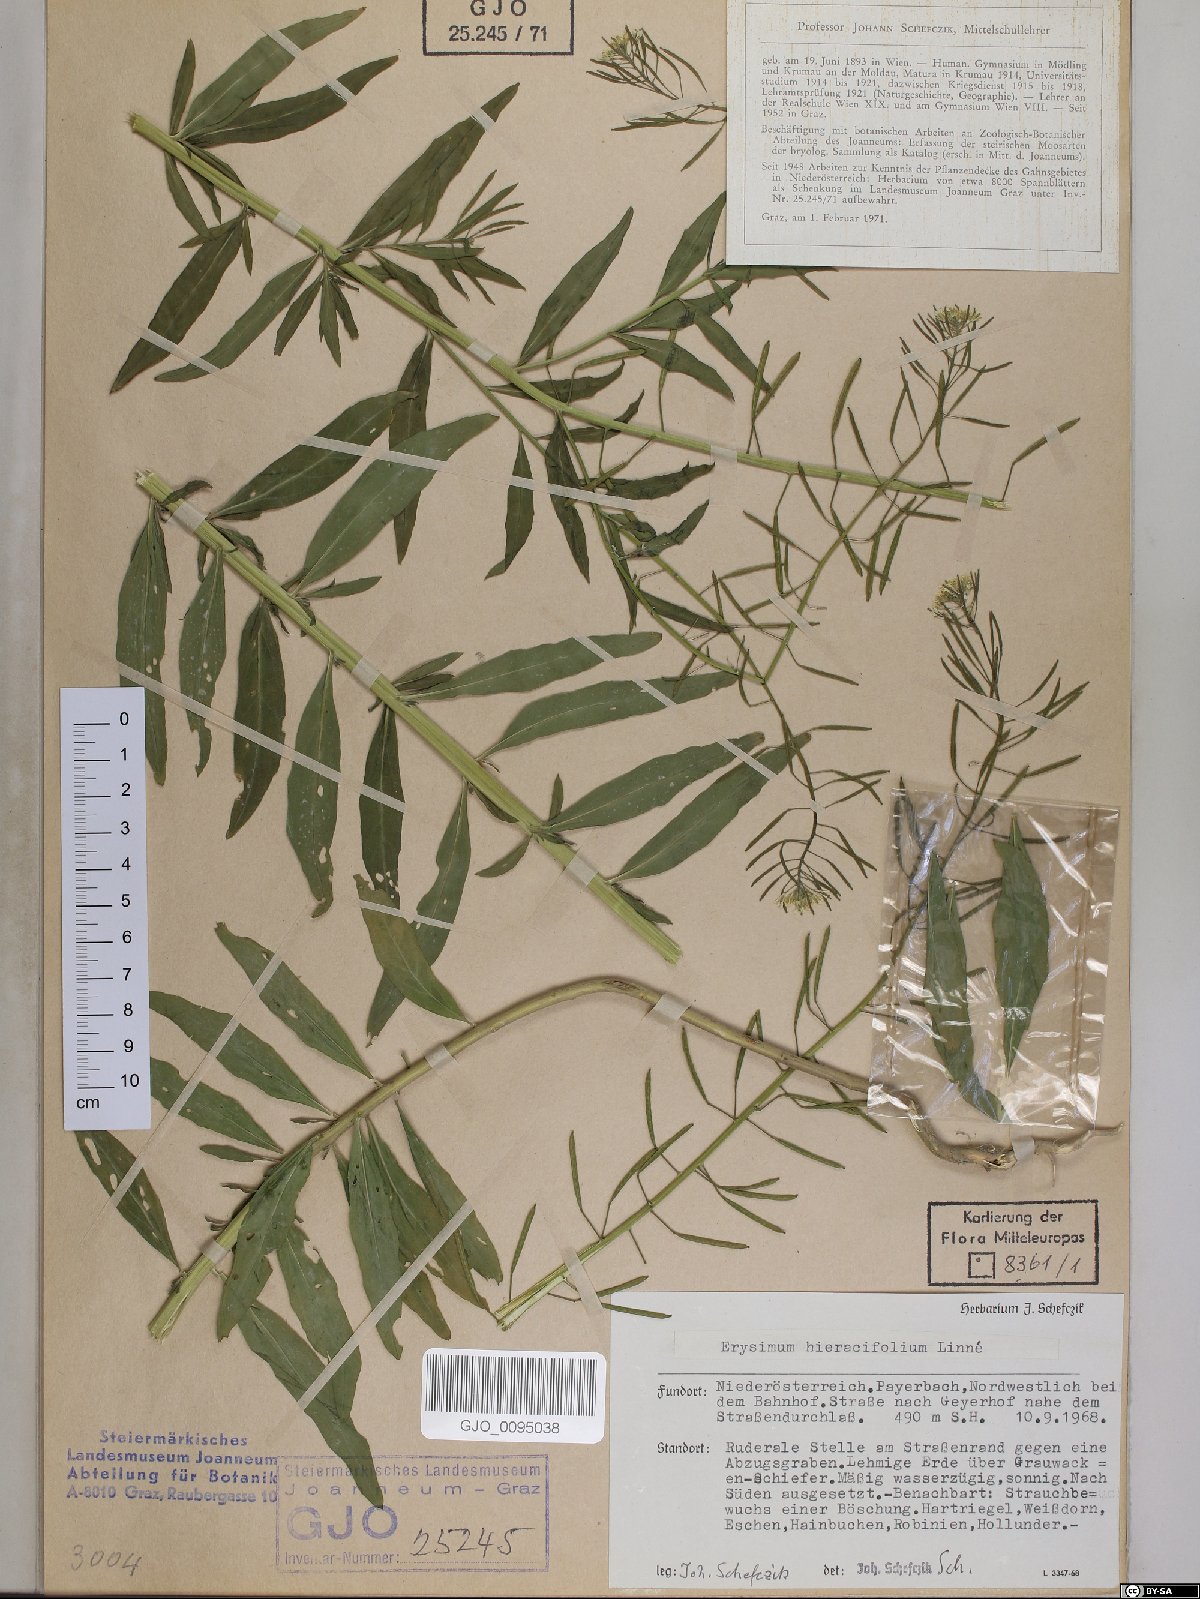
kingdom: Plantae
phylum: Tracheophyta
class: Magnoliopsida
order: Brassicales
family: Brassicaceae
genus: Erysimum
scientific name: Erysimum hieraciifolium
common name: European wallflower
